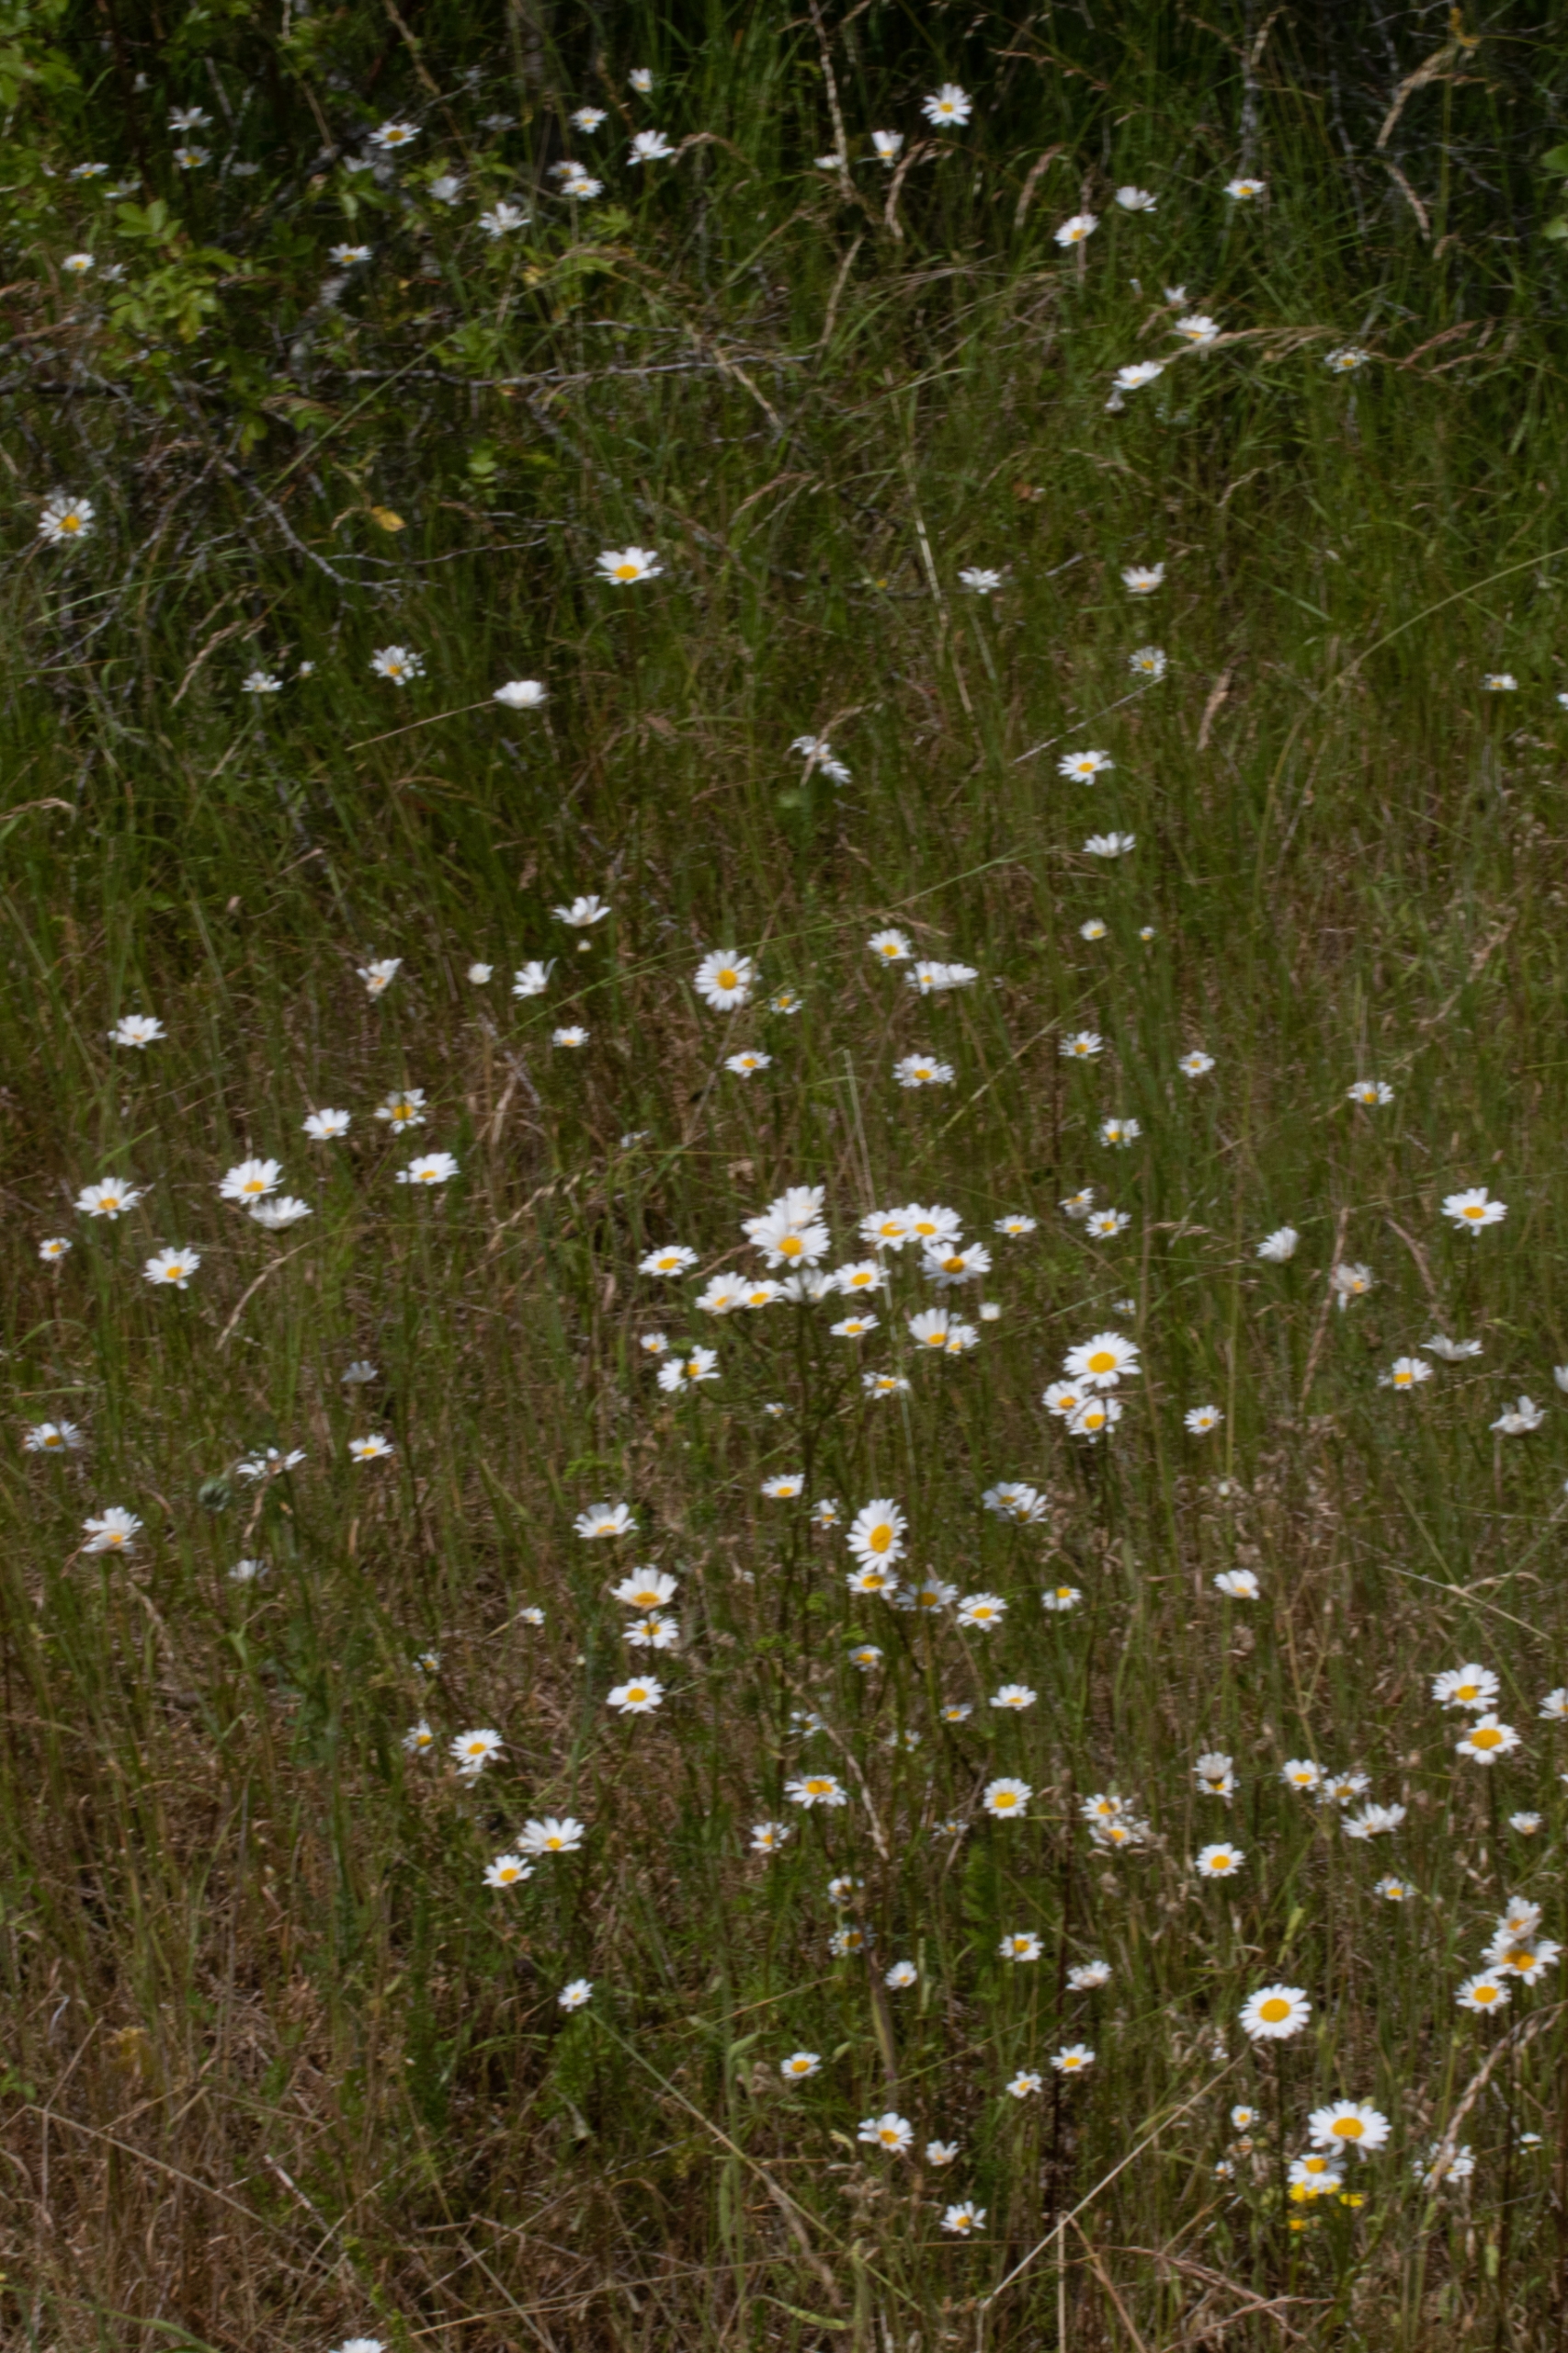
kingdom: Plantae
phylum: Tracheophyta
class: Magnoliopsida
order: Asterales
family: Asteraceae
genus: Leucanthemum
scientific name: Leucanthemum vulgare
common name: Hvid okseøje
